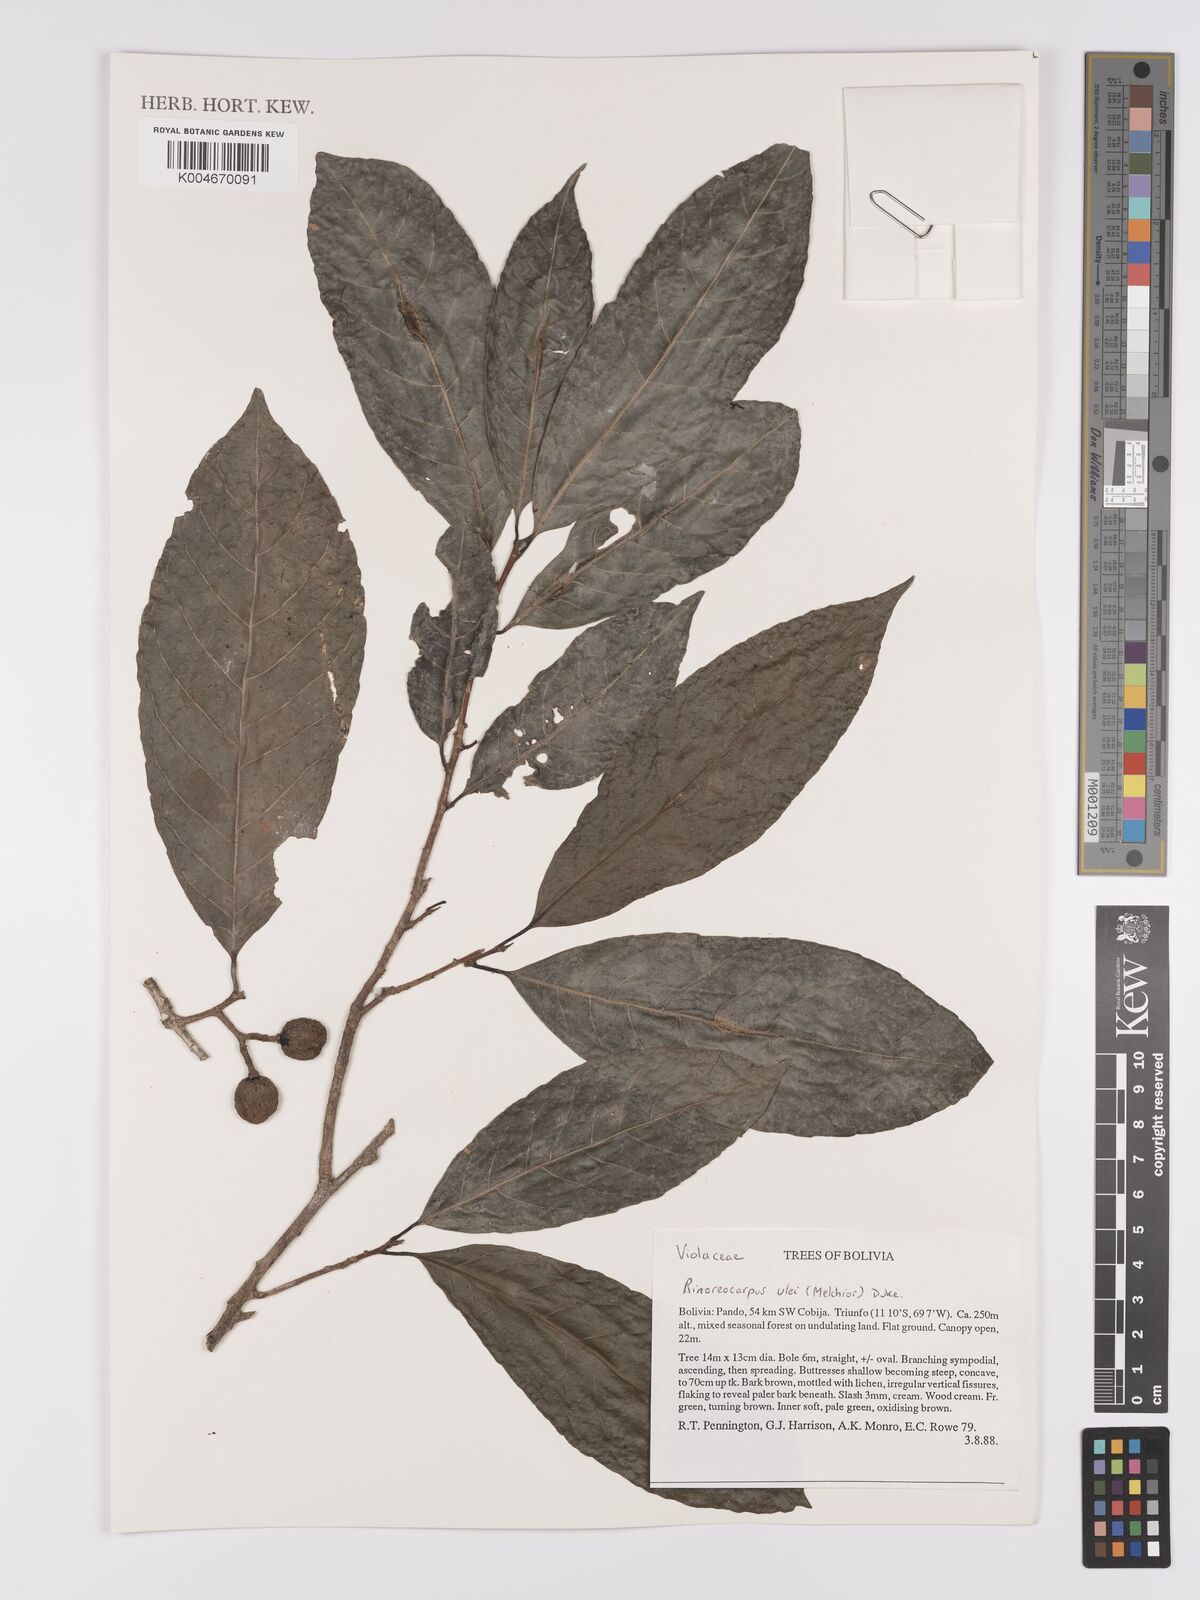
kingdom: Plantae
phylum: Tracheophyta
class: Magnoliopsida
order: Malpighiales
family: Violaceae
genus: Rinoreocarpus
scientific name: Rinoreocarpus ulei
